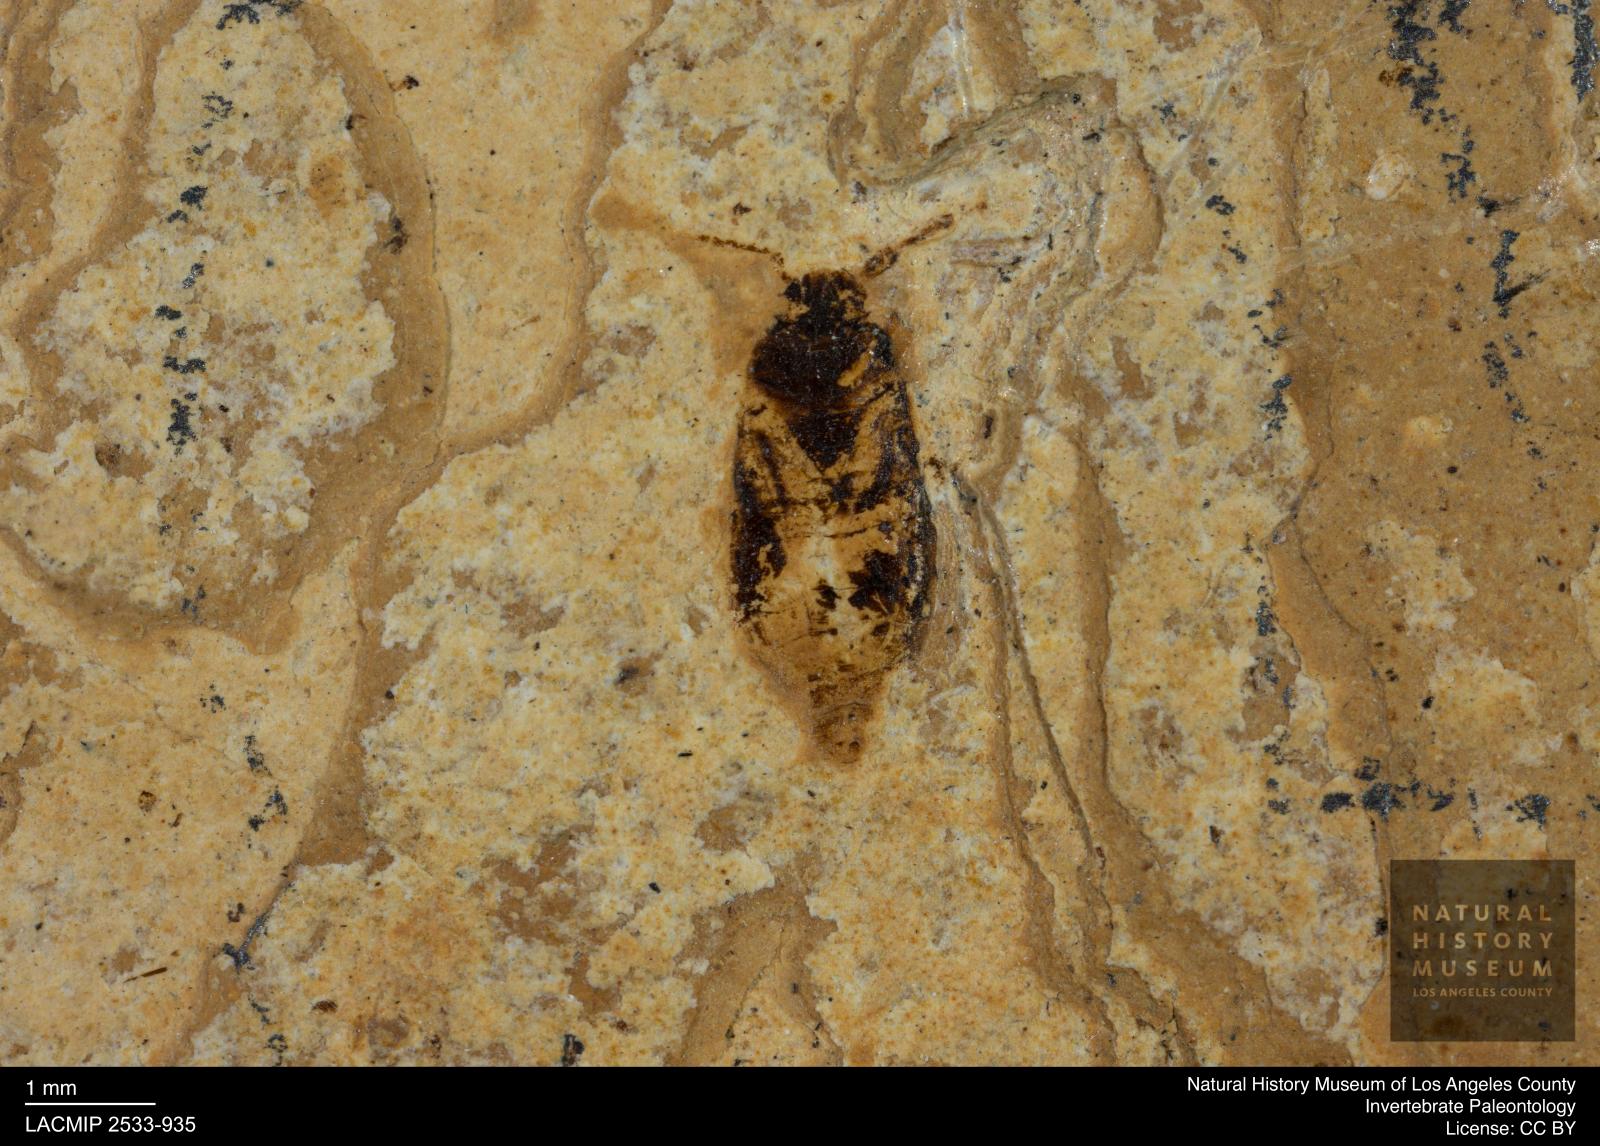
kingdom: Animalia
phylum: Arthropoda
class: Insecta
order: Hemiptera
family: Rhyparochromidae
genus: Trapezonotus
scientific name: Trapezonotus striatus
